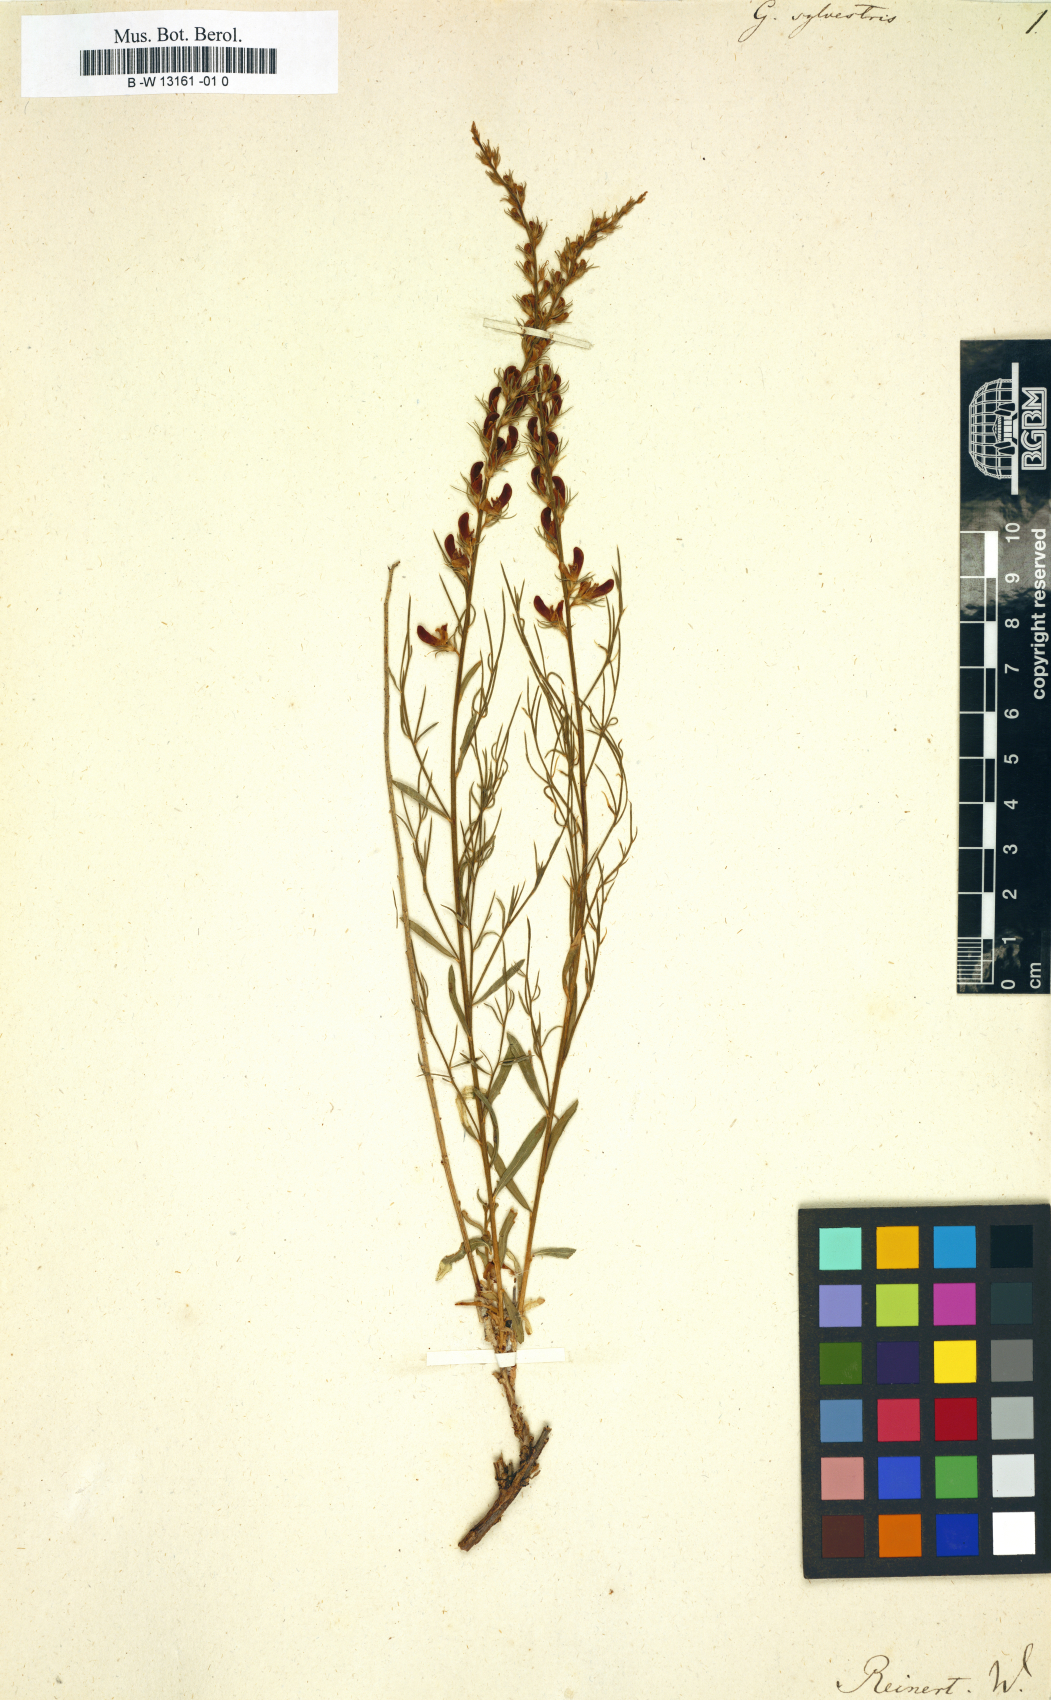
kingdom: Plantae
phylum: Tracheophyta
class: Magnoliopsida
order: Fabales
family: Fabaceae
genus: Genista
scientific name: Genista sylvestris
